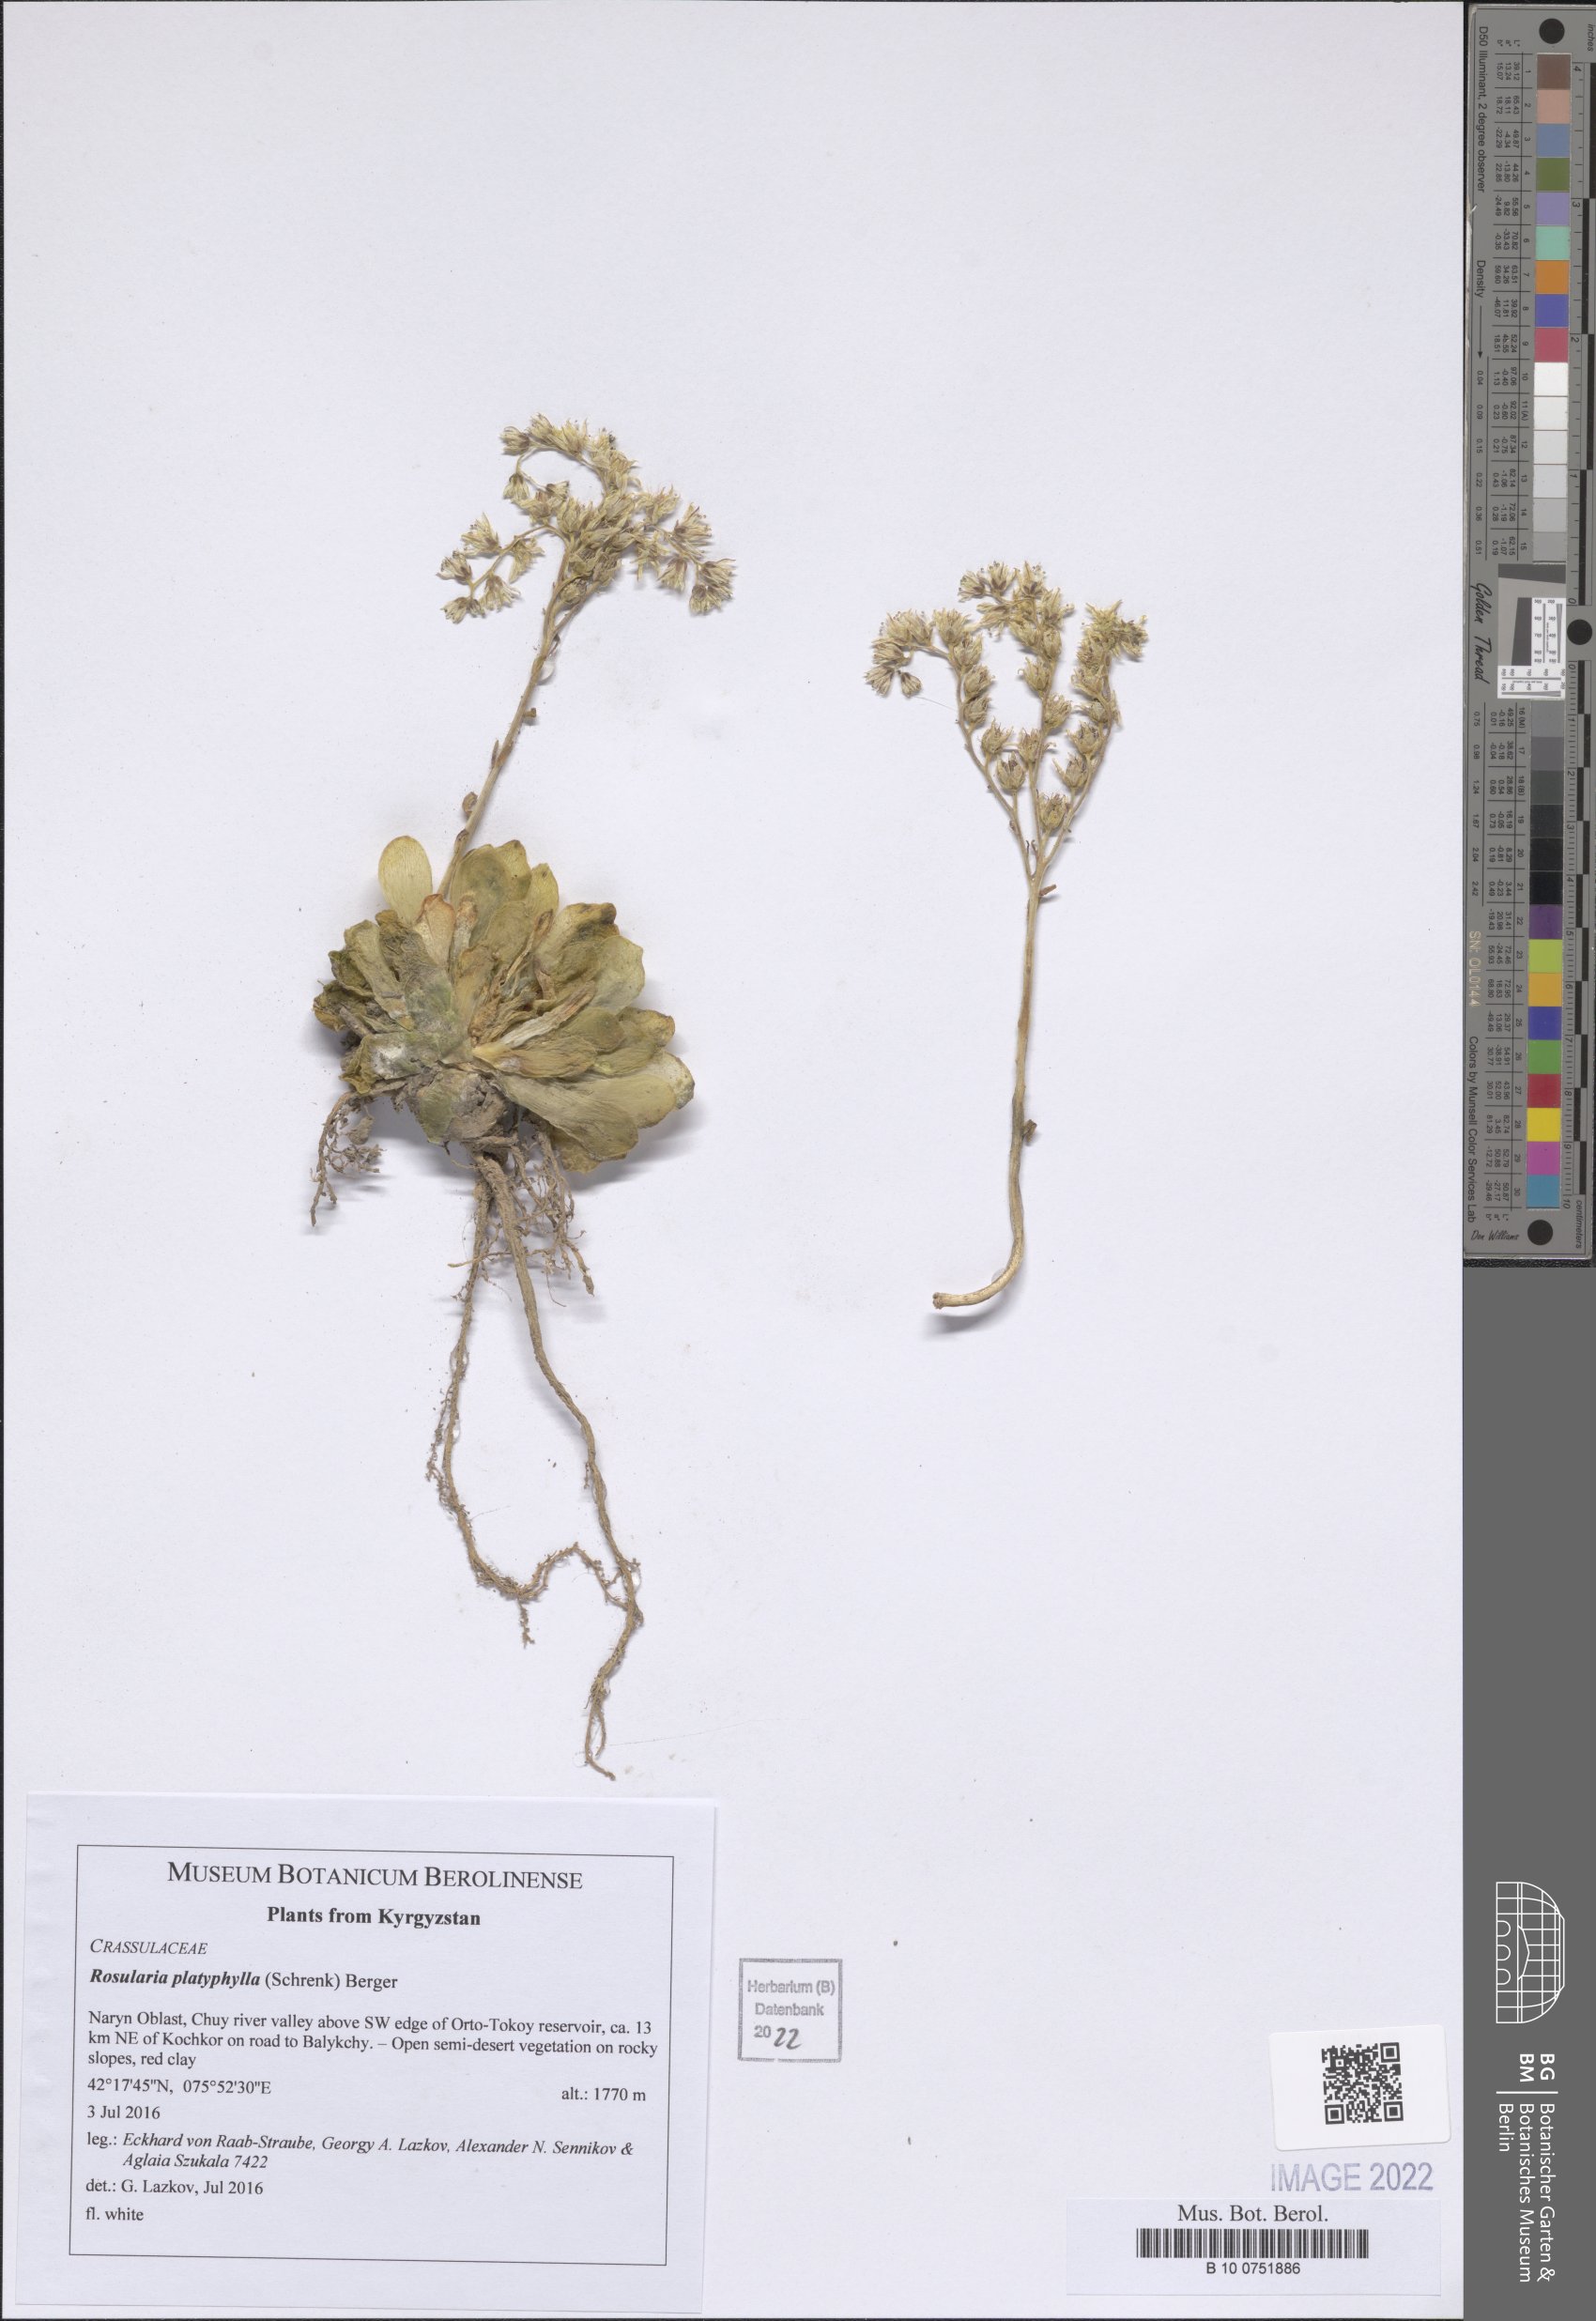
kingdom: Plantae
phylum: Tracheophyta
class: Magnoliopsida
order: Saxifragales
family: Crassulaceae
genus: Rosularia
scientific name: Rosularia platyphylla
